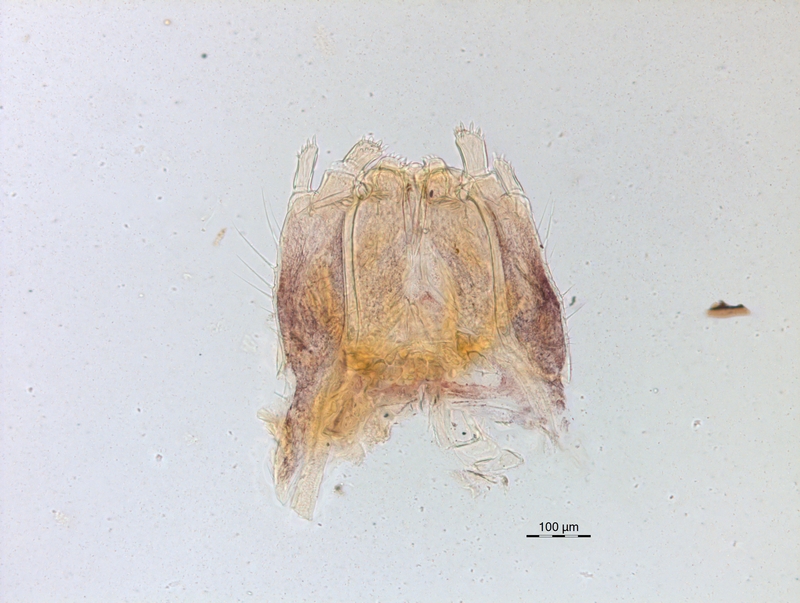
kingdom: Animalia
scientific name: Animalia
